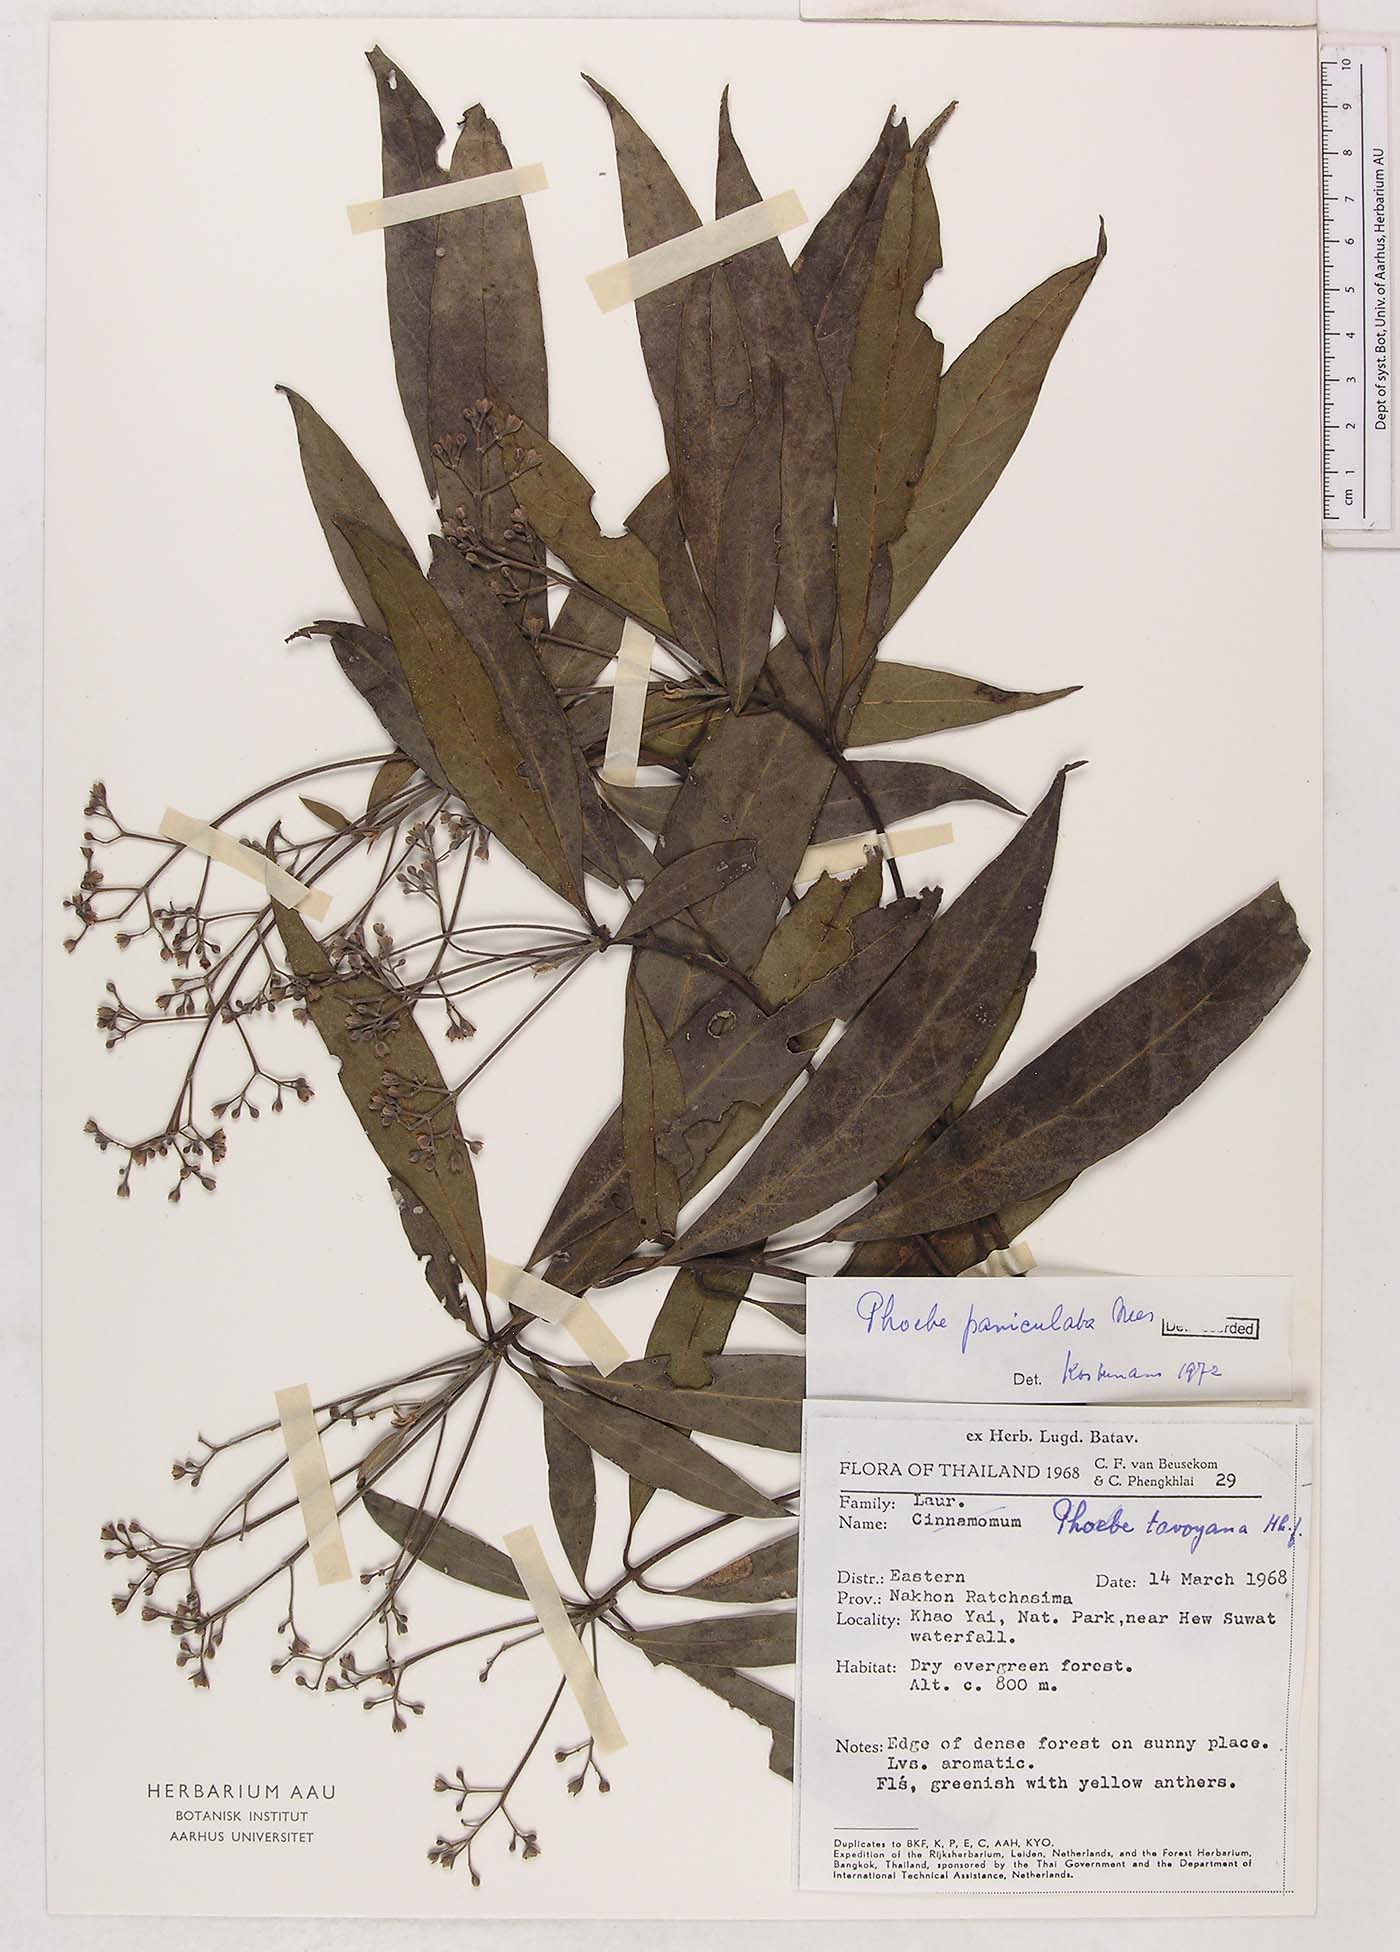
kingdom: Plantae
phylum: Tracheophyta
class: Magnoliopsida
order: Laurales
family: Lauraceae
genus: Phoebe
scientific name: Phoebe cathia
